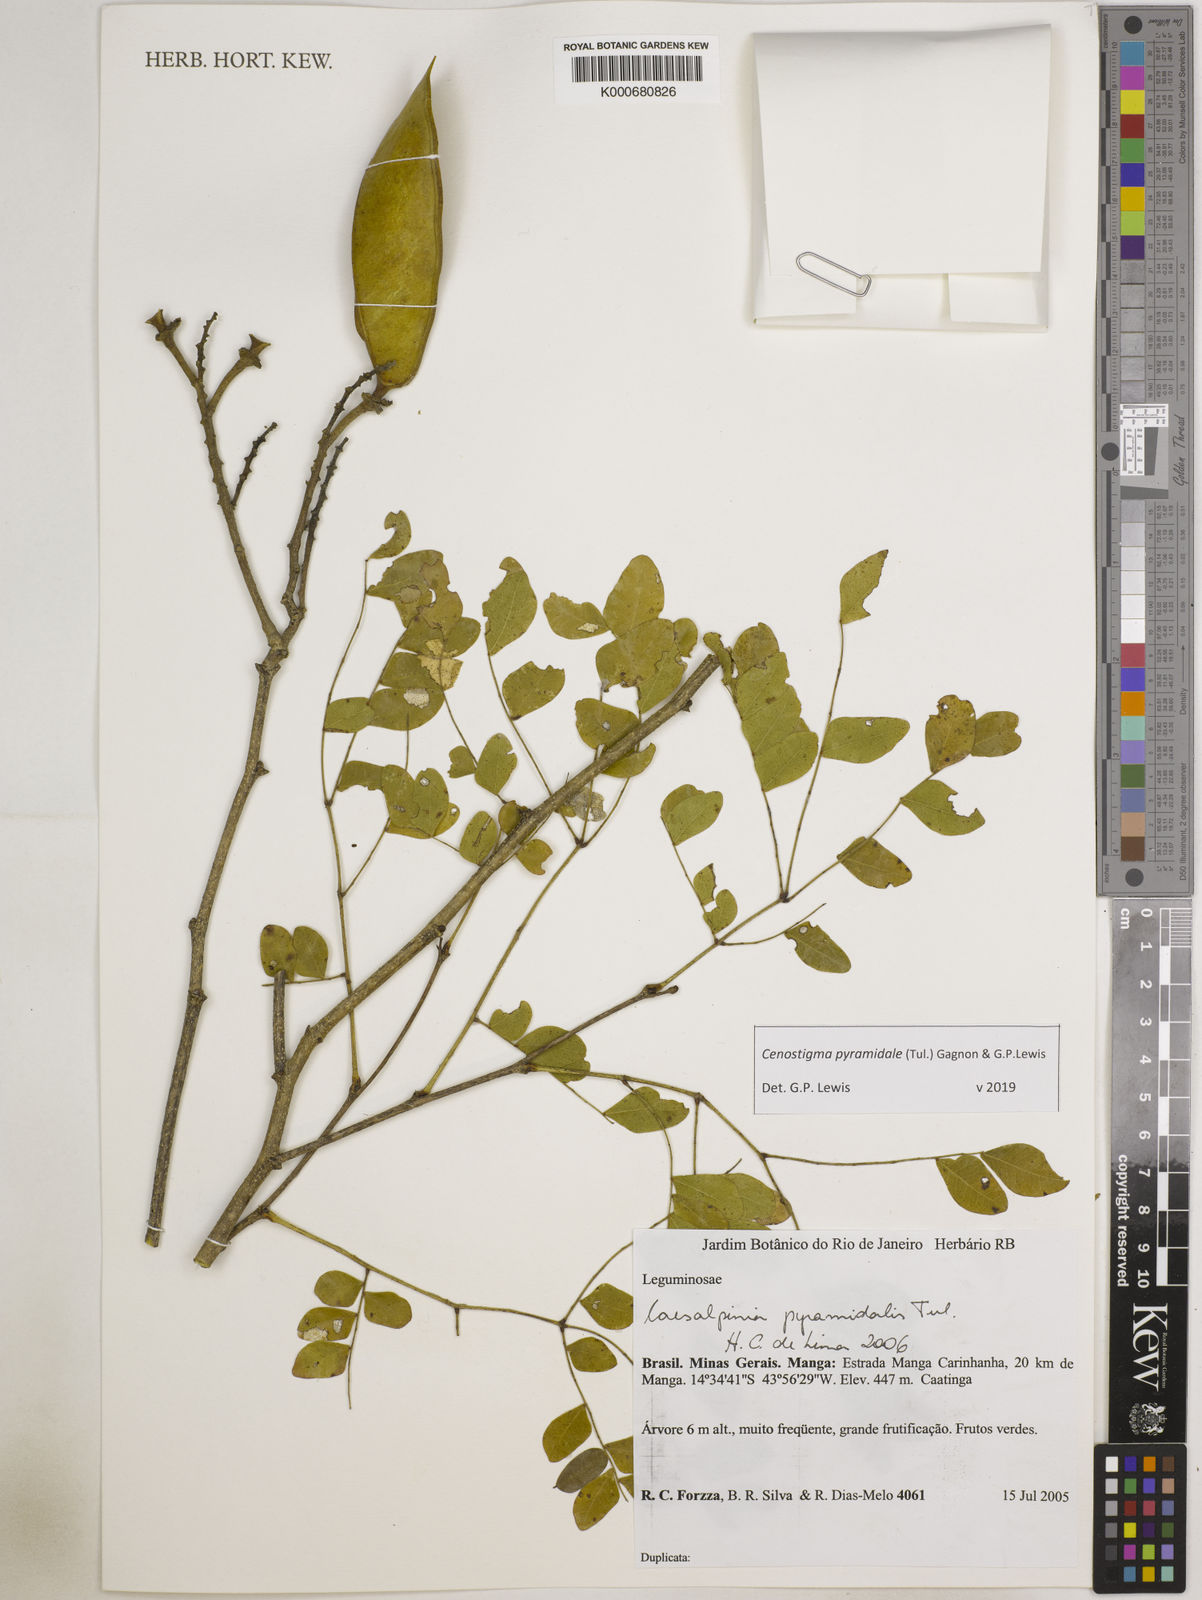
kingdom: Plantae
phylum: Tracheophyta
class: Magnoliopsida
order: Fabales
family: Fabaceae
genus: Caesalpinia
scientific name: Caesalpinia
